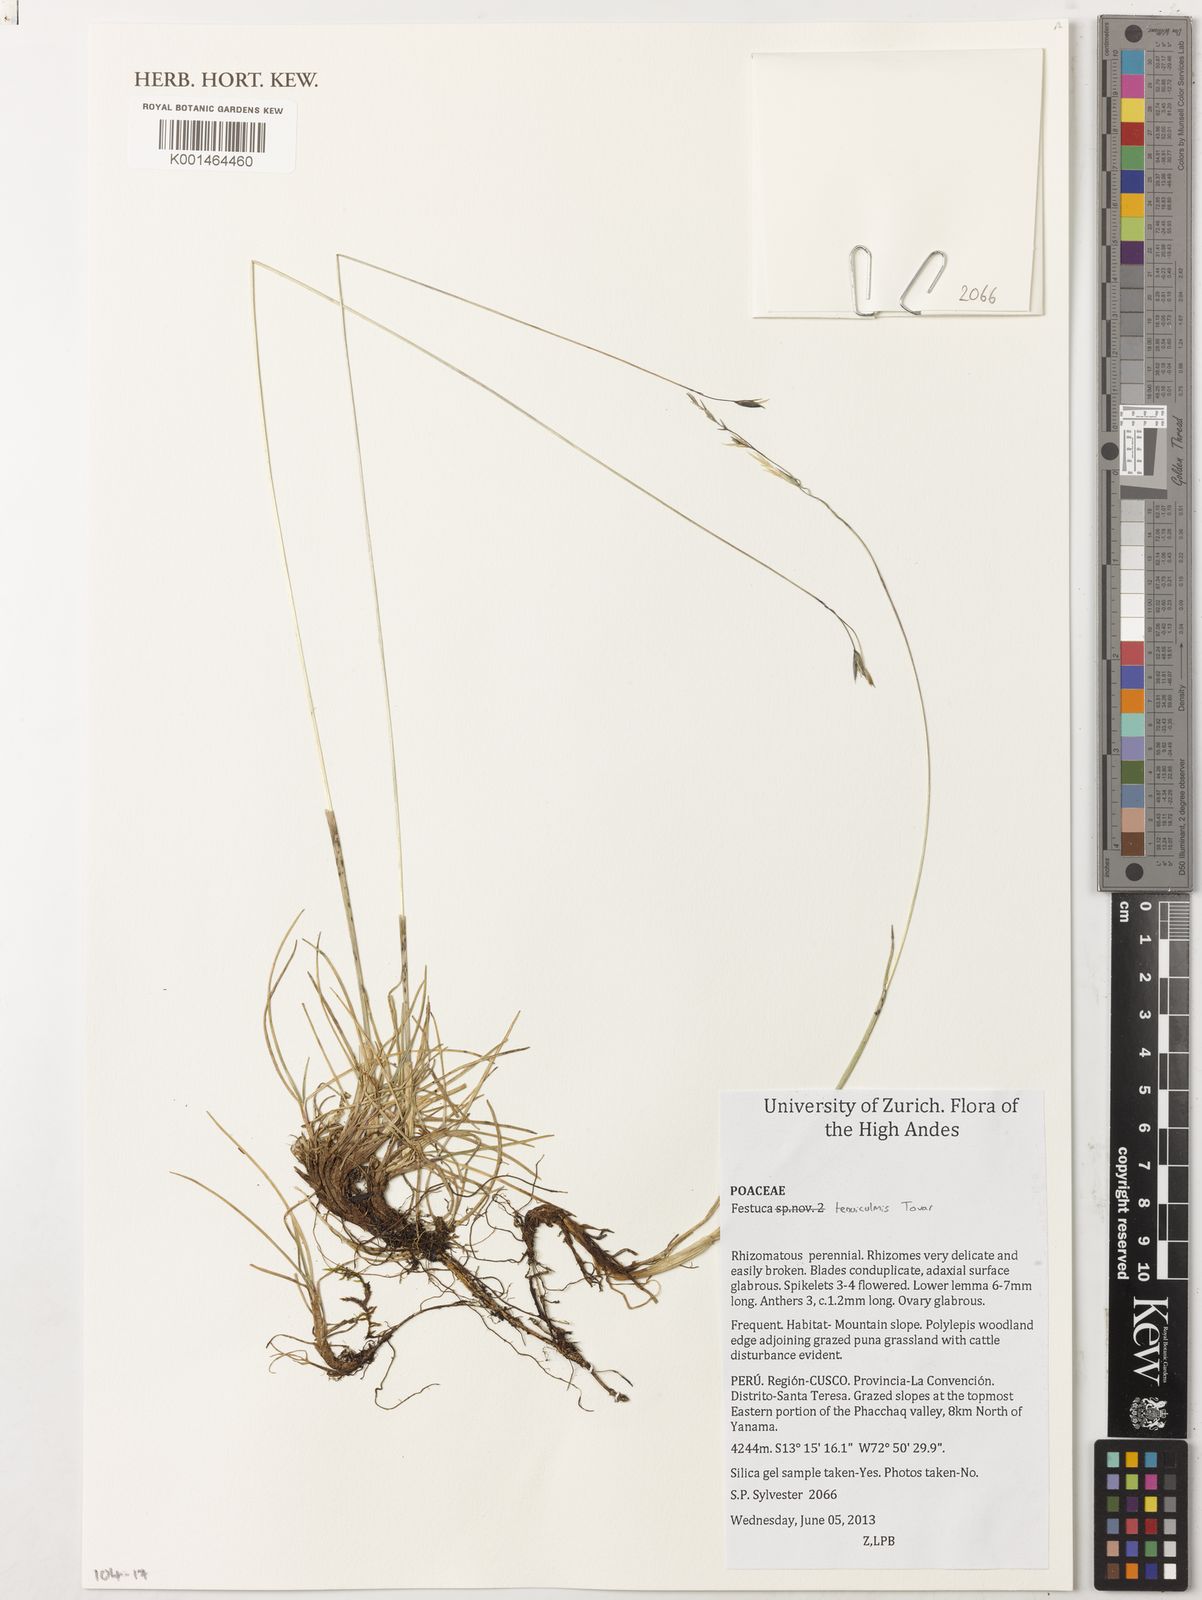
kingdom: Plantae
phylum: Tracheophyta
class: Liliopsida
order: Poales
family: Poaceae
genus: Poa
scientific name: Poa annua
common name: Annual bluegrass
